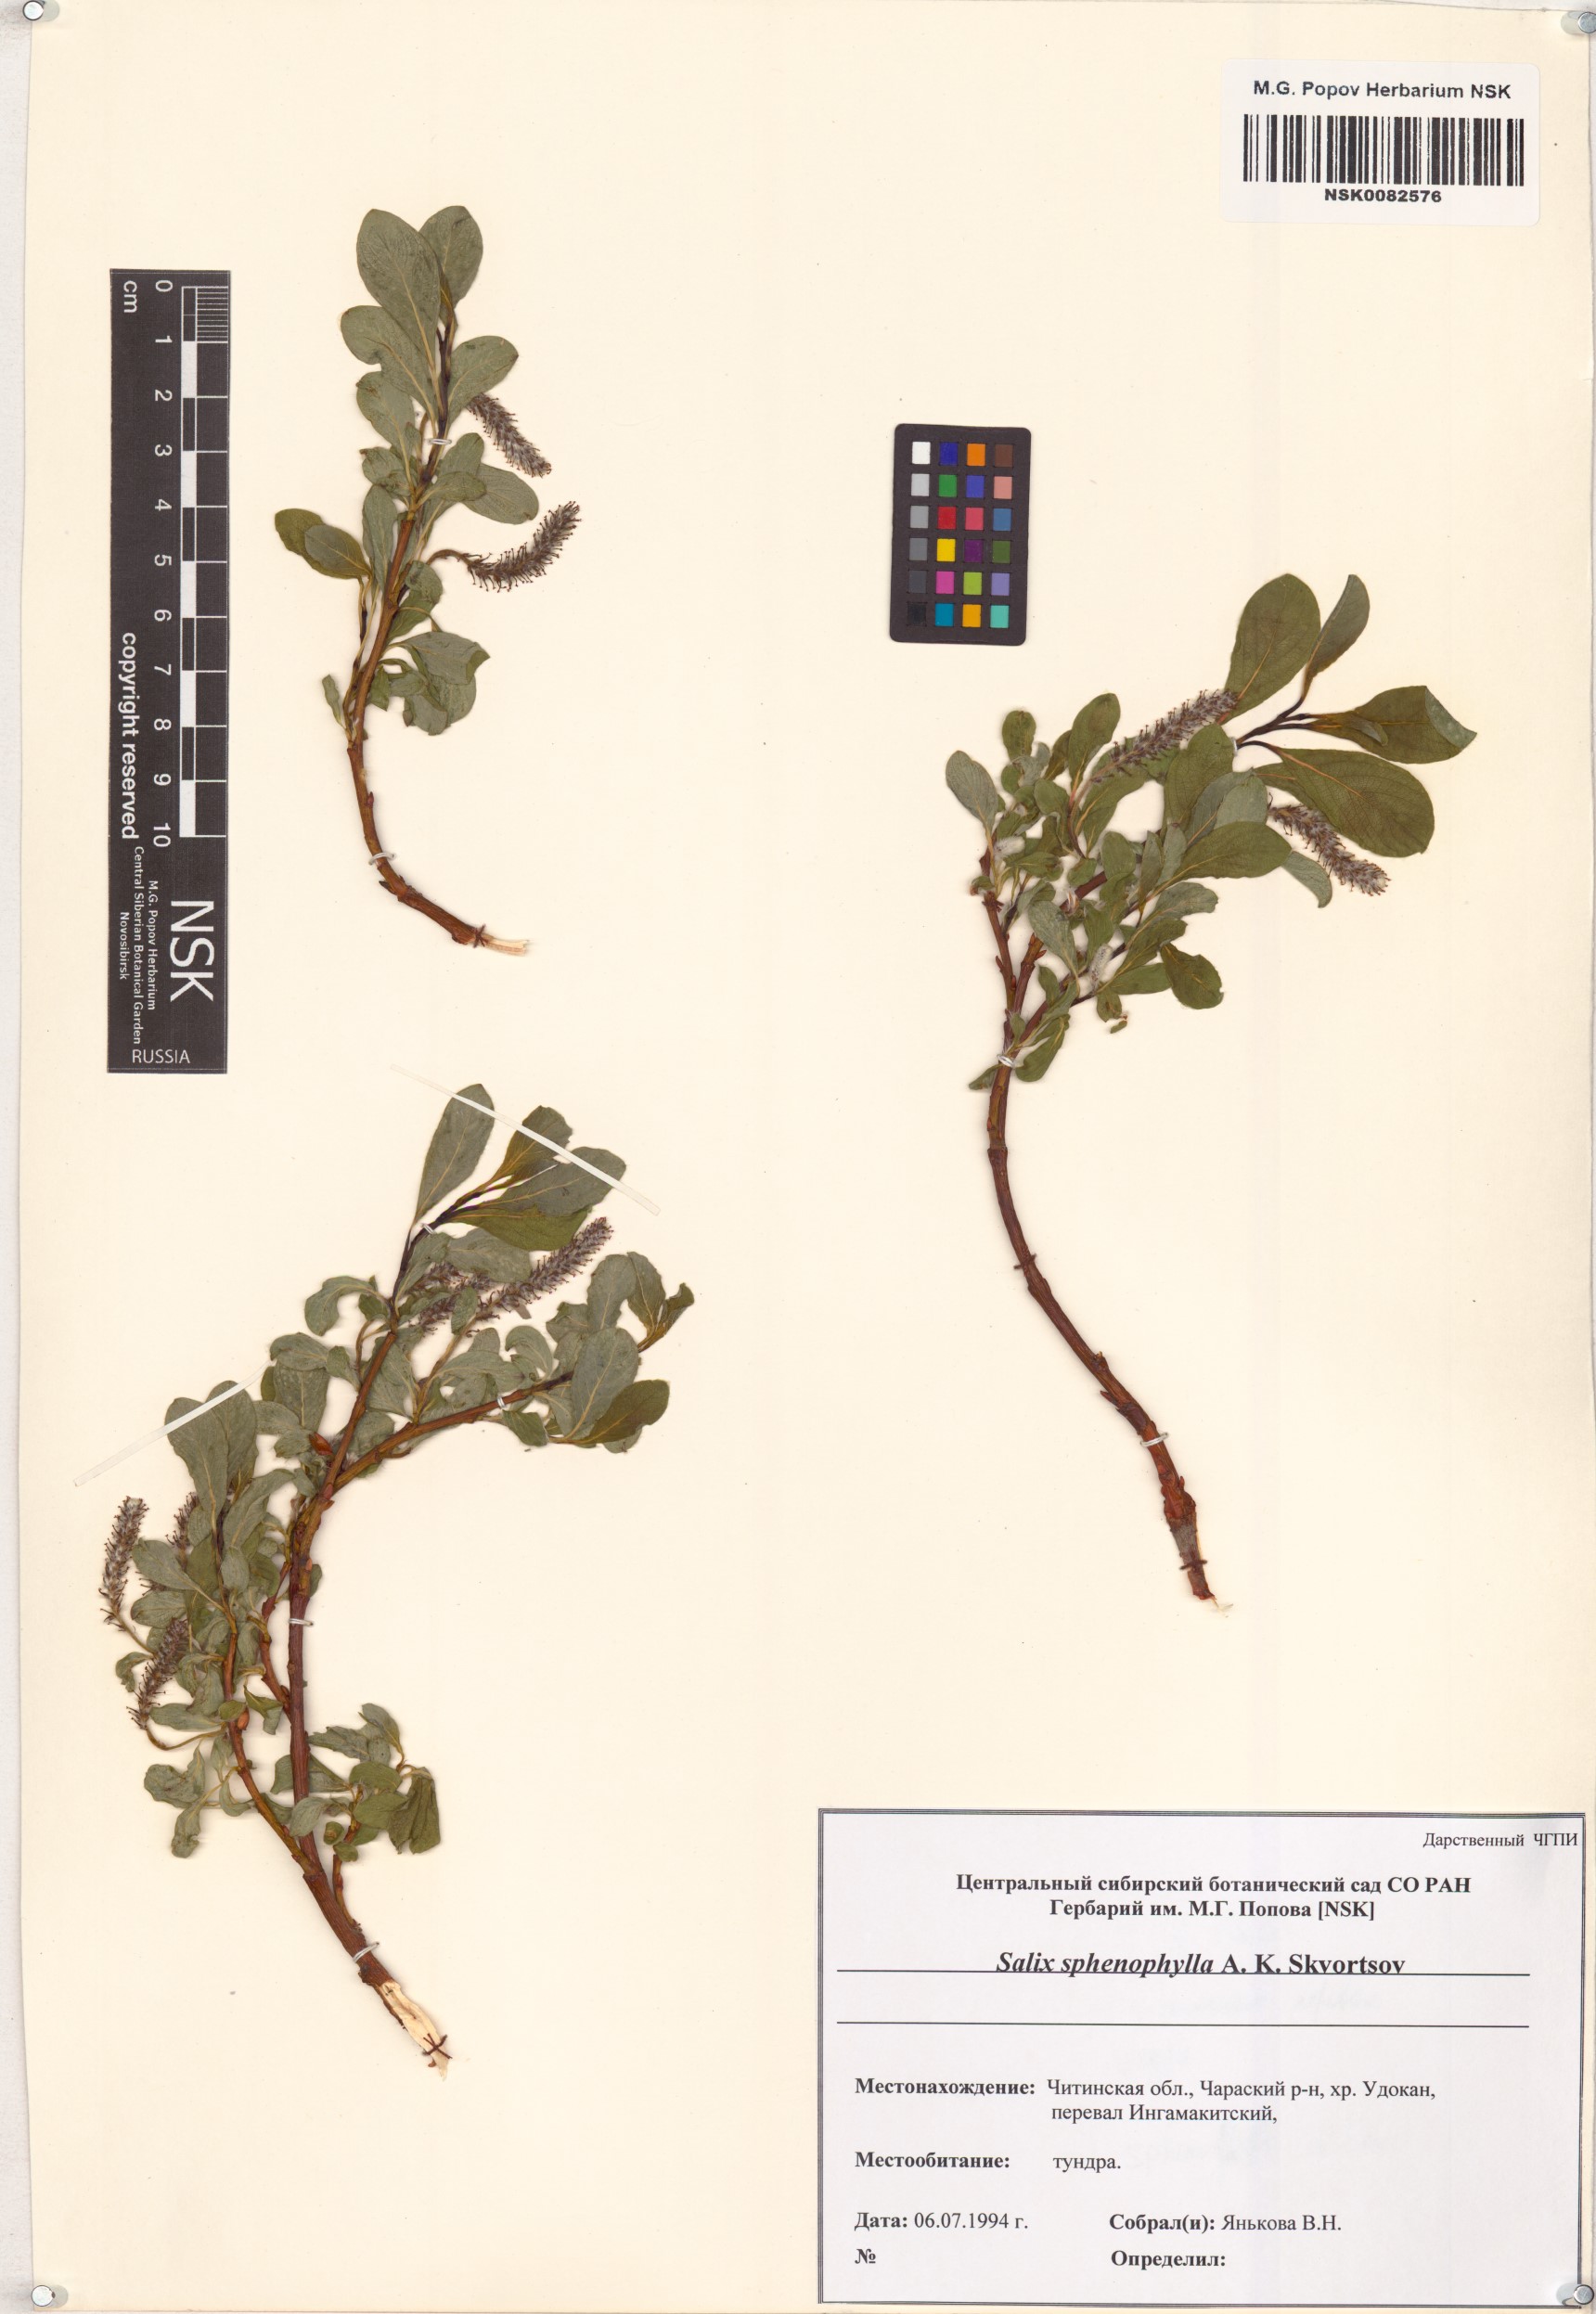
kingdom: Plantae
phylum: Tracheophyta
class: Magnoliopsida
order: Malpighiales
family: Salicaceae
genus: Salix
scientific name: Salix sphenophylla
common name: Wedge-leaved willow
